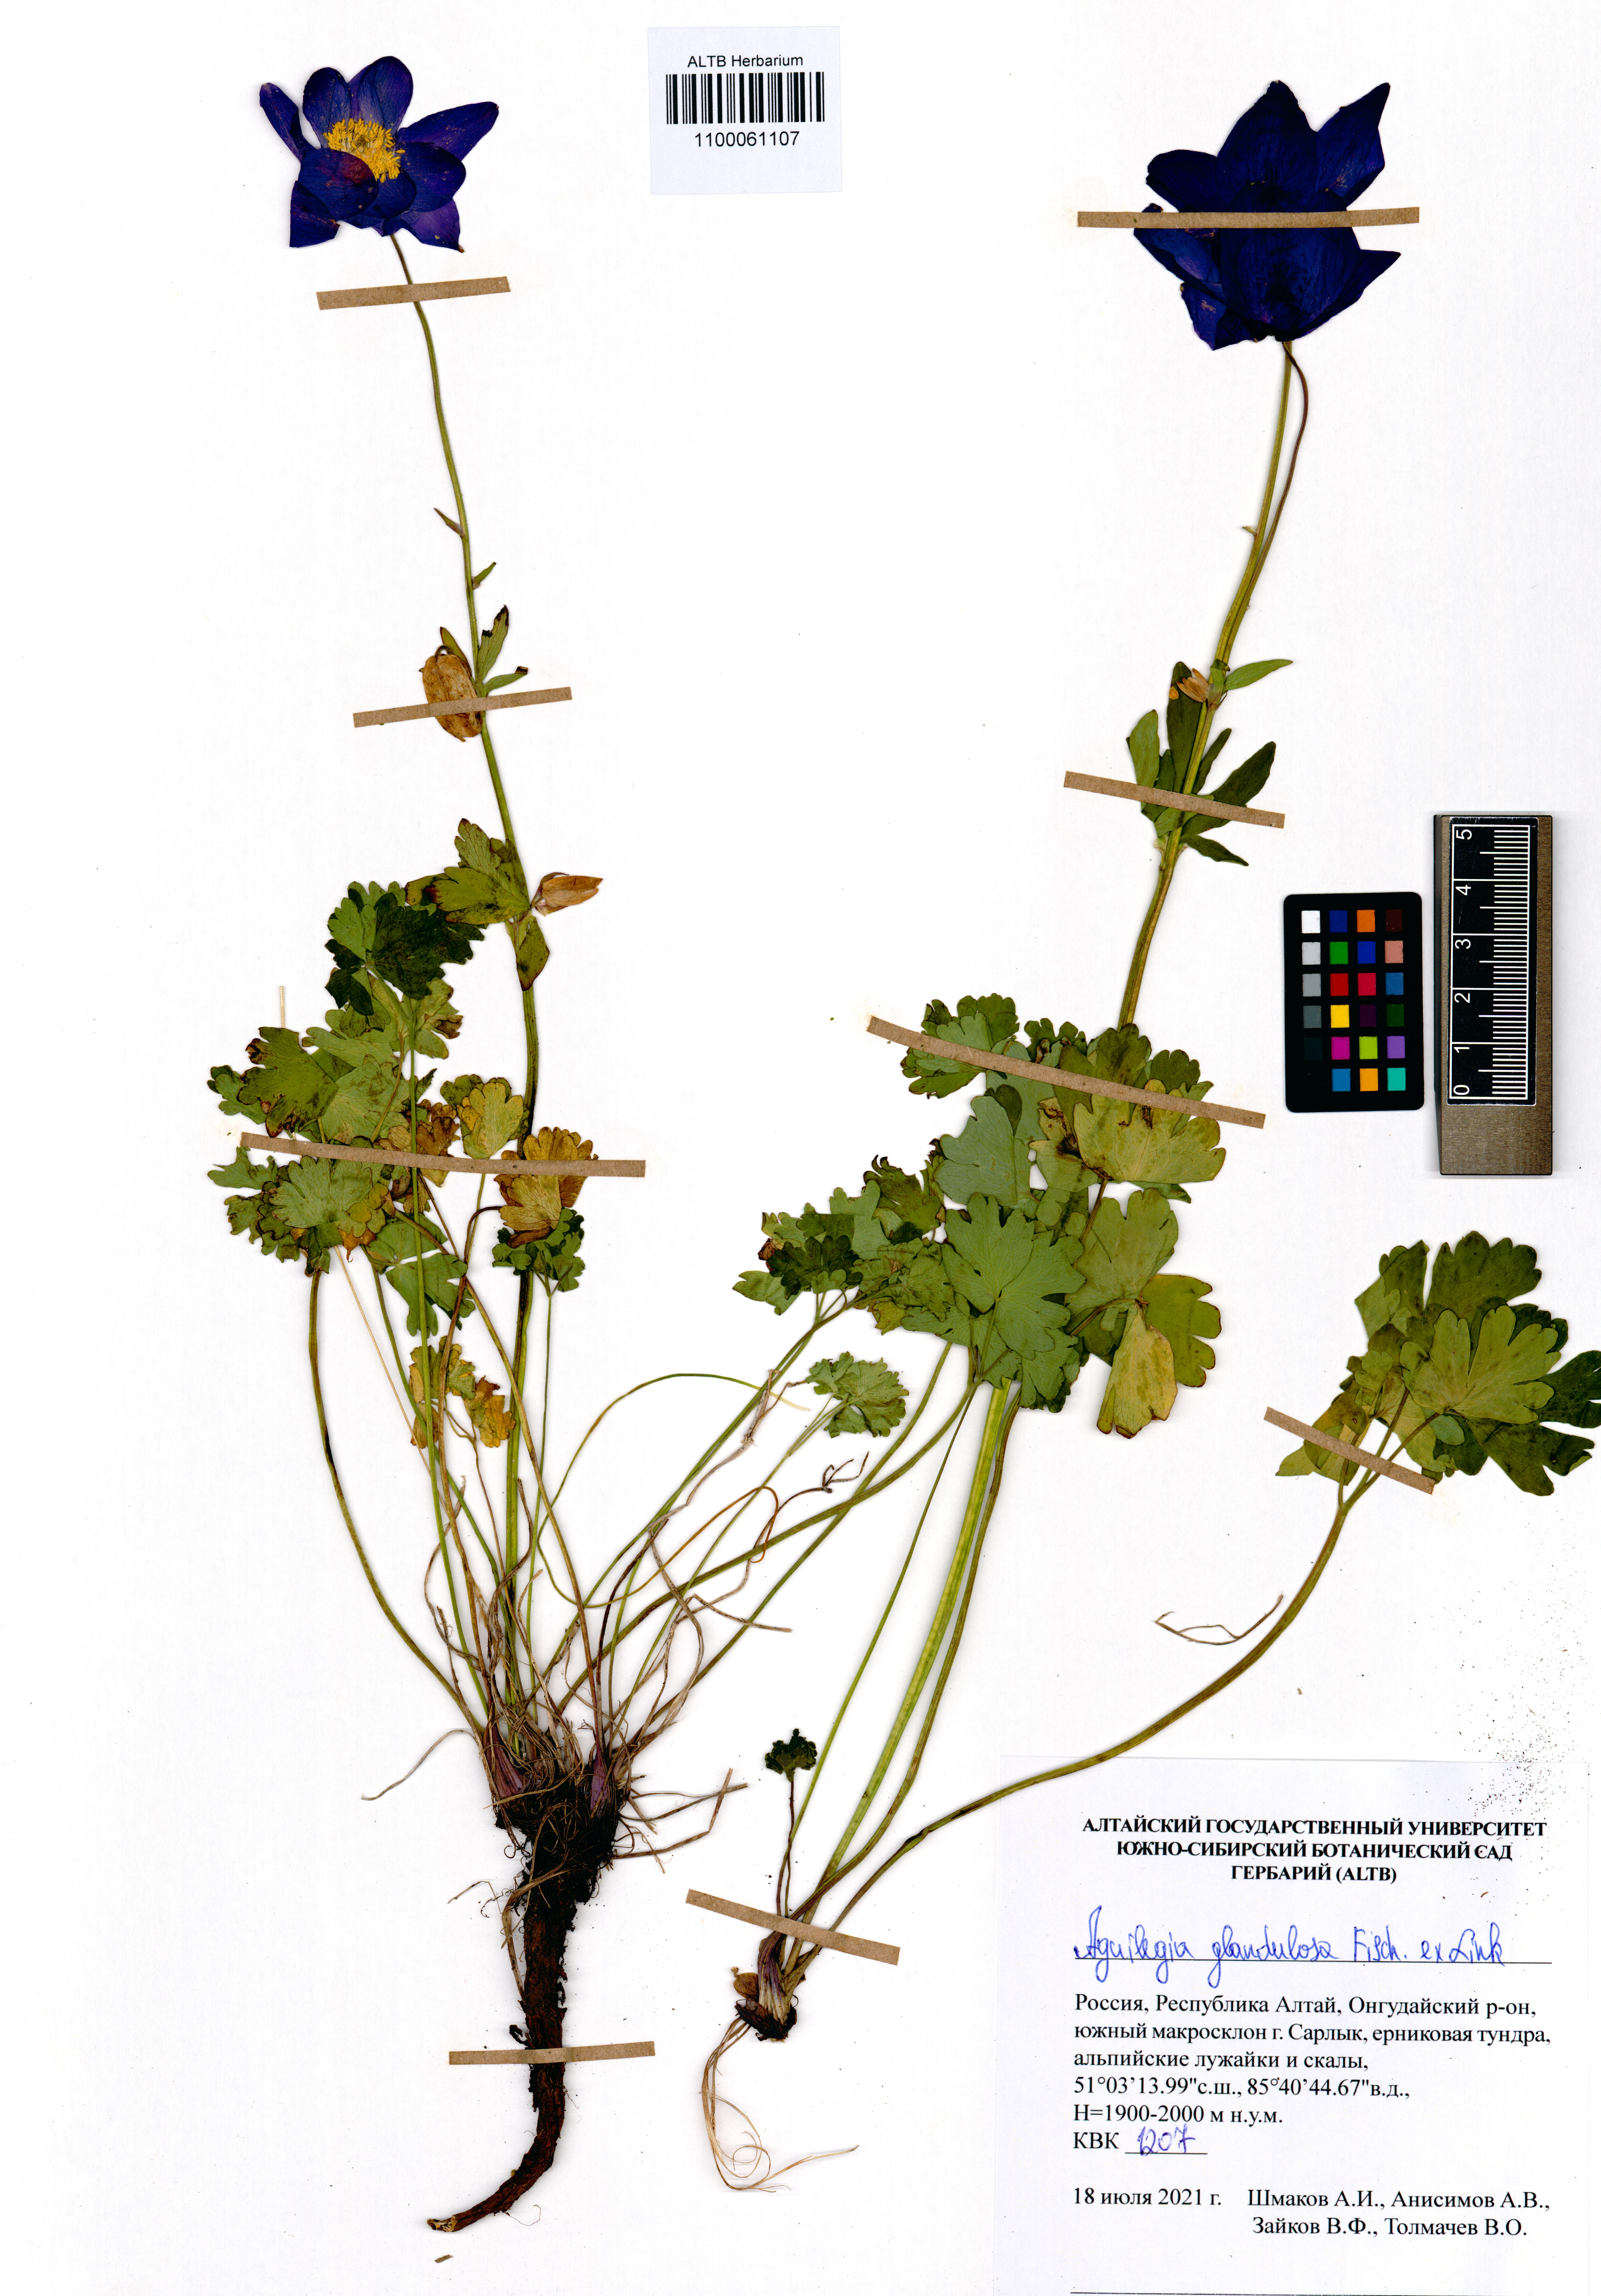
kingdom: Plantae
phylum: Tracheophyta
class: Magnoliopsida
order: Ranunculales
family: Ranunculaceae
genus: Aquilegia
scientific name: Aquilegia glandulosa
